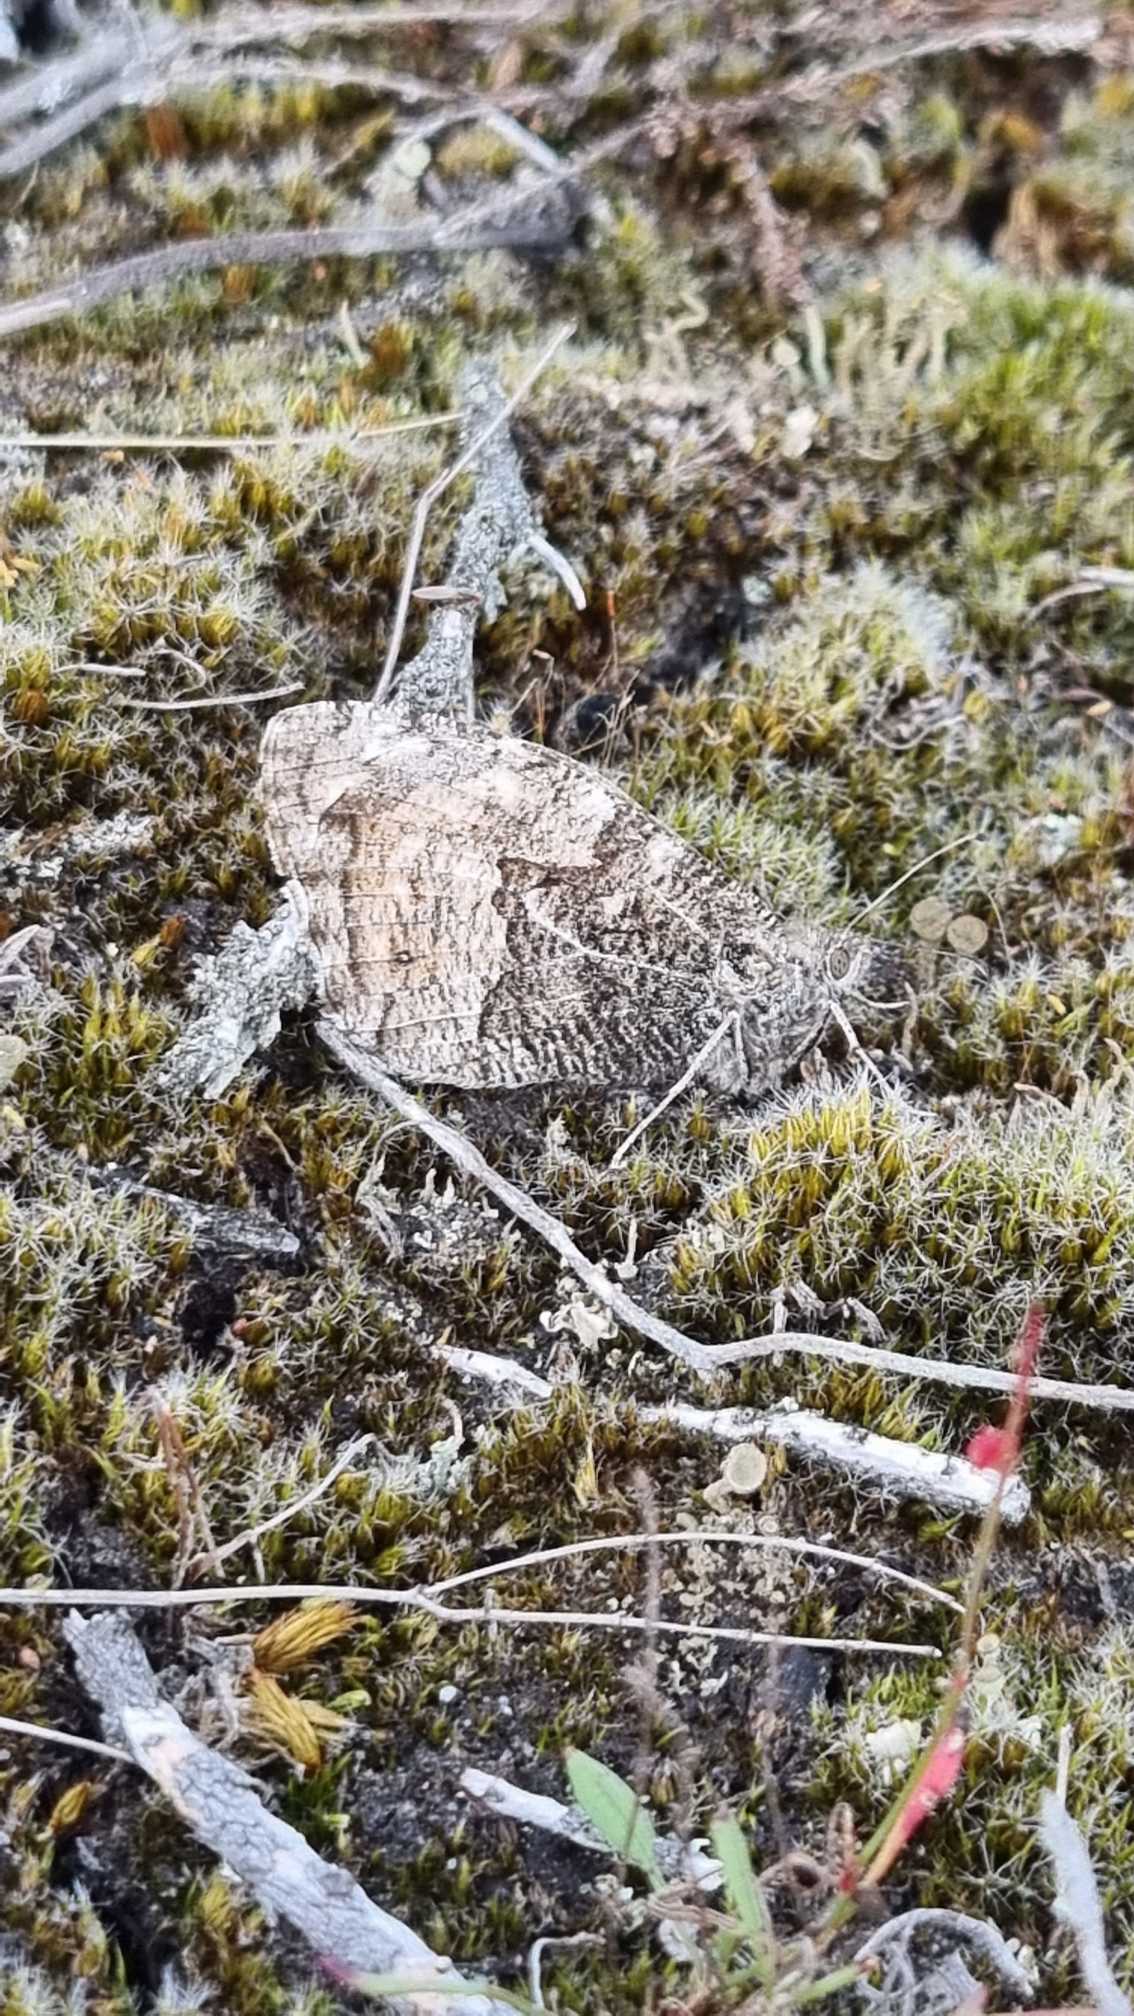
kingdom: Animalia
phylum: Arthropoda
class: Insecta
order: Lepidoptera
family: Nymphalidae
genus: Hipparchia
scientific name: Hipparchia semele
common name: Sandrandøje
